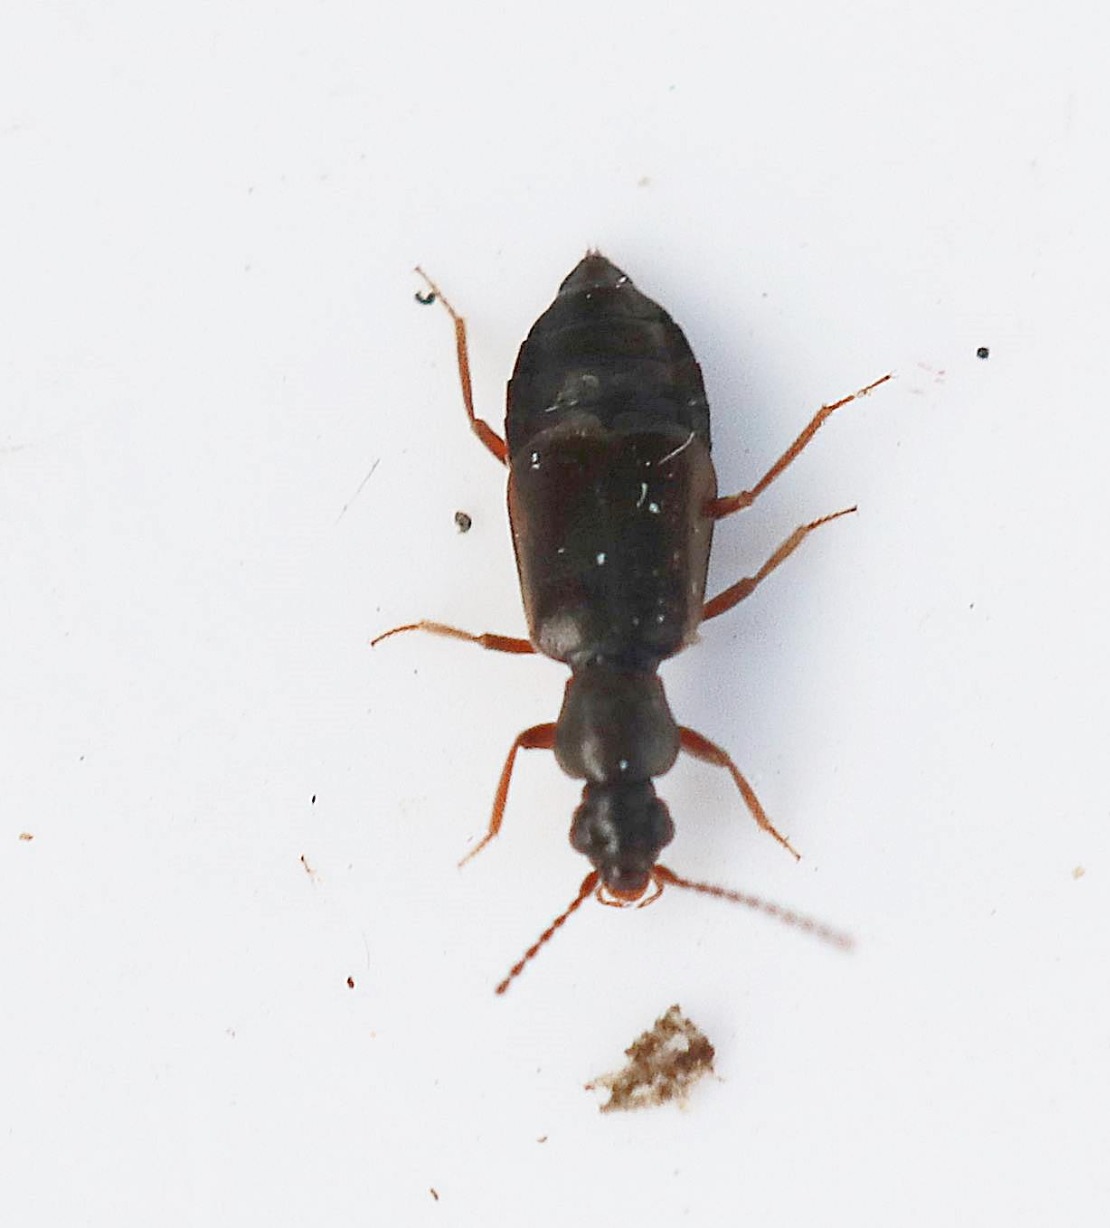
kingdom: Animalia
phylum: Arthropoda
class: Insecta
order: Coleoptera
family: Staphylinidae
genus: Lesteva
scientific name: Lesteva longoelytrata
